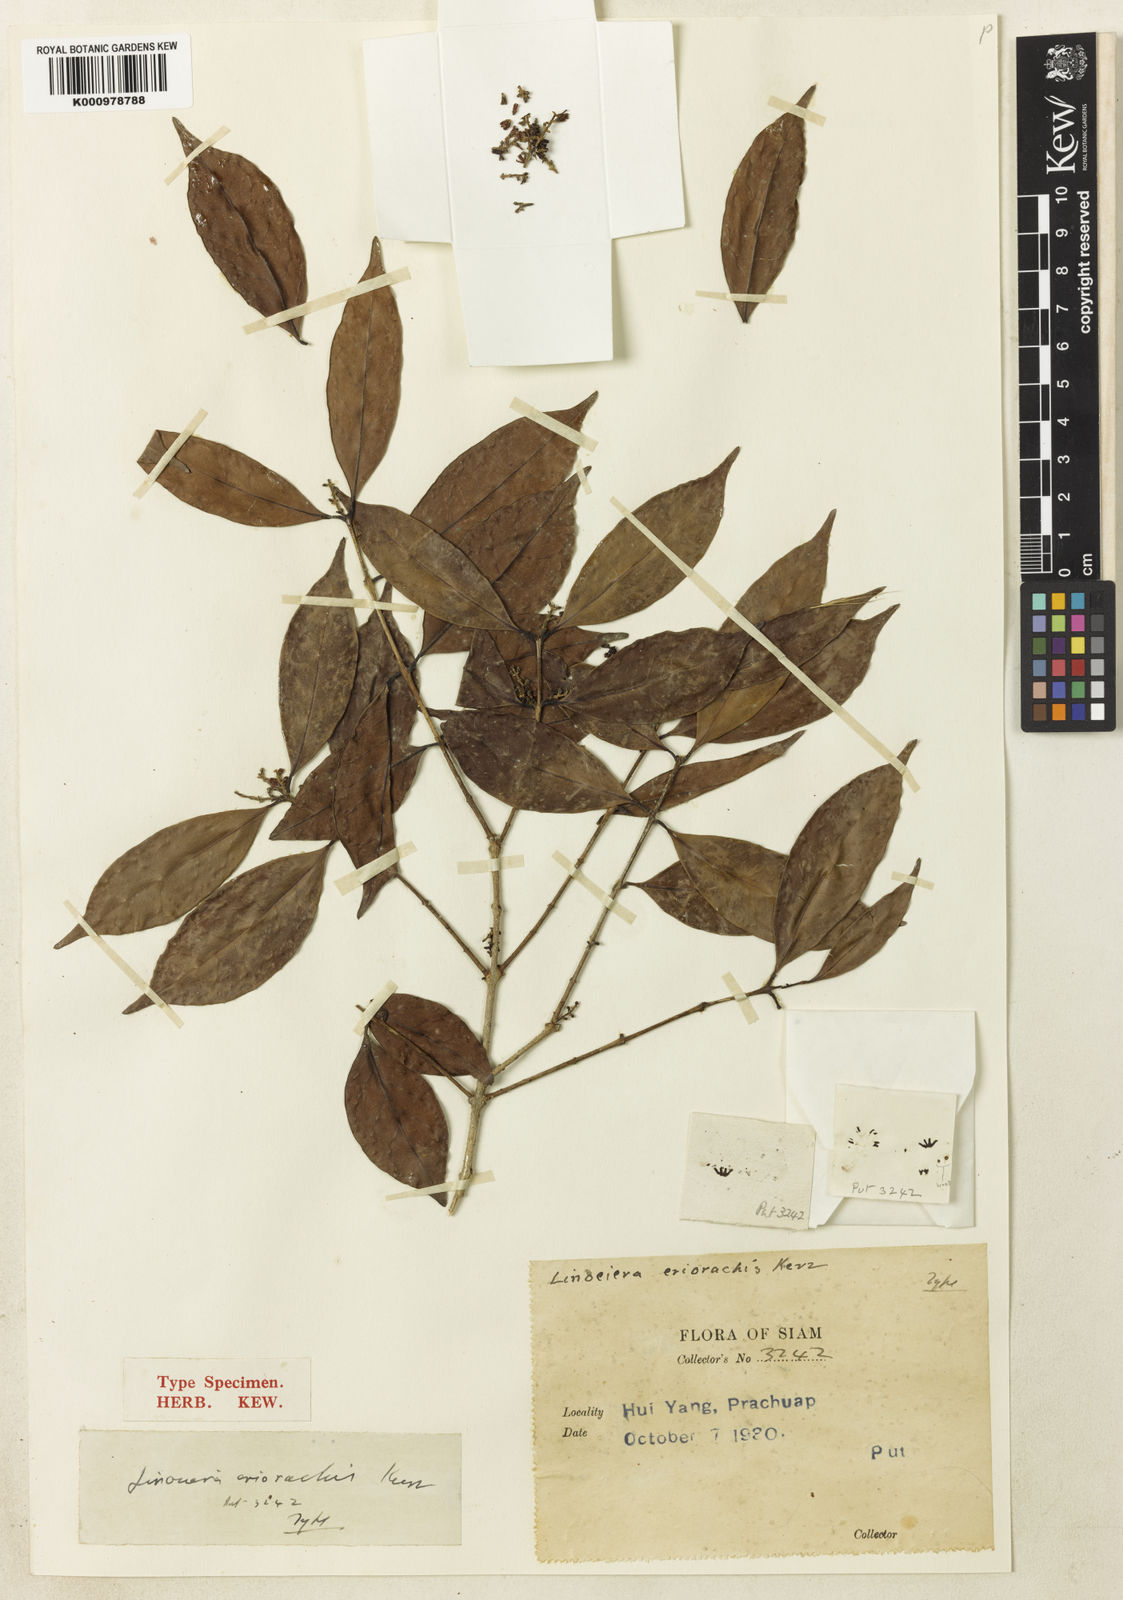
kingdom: Plantae
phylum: Tracheophyta
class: Magnoliopsida
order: Lamiales
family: Oleaceae
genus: Chionanthus
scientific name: Chionanthus eriorachis
